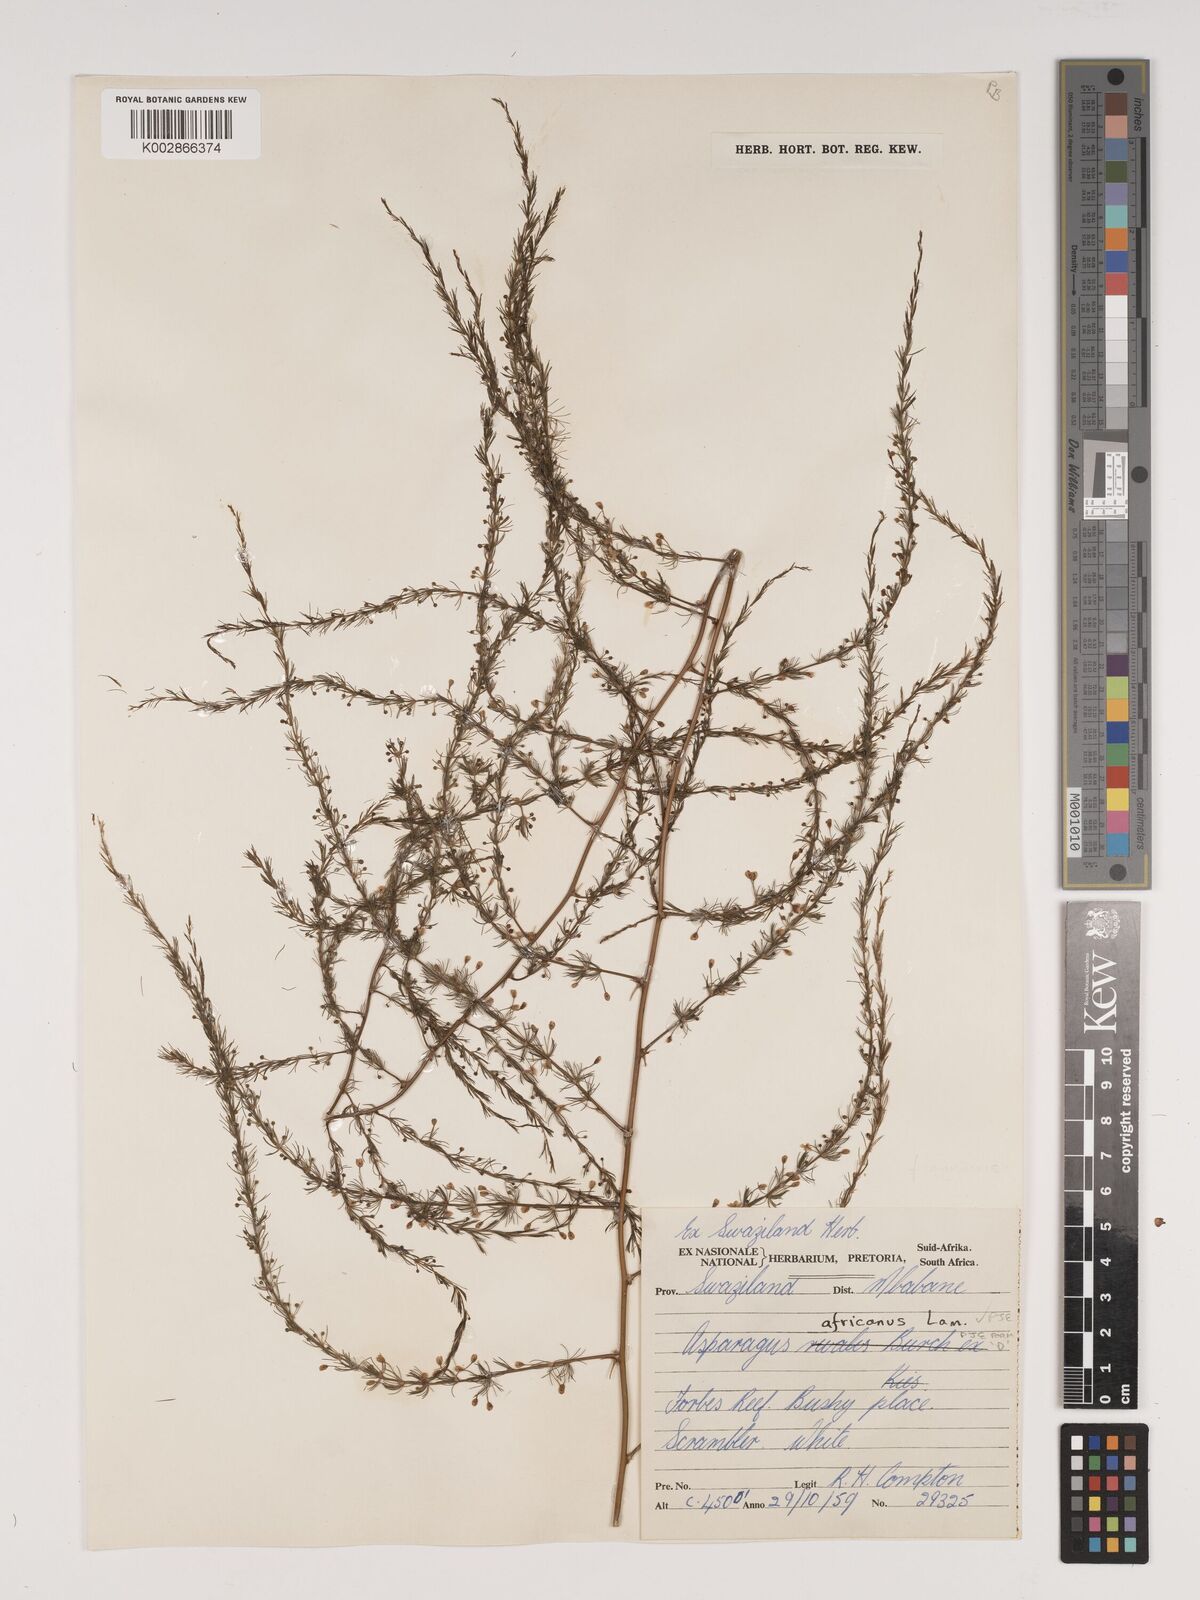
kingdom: Plantae
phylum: Tracheophyta
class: Liliopsida
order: Asparagales
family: Asparagaceae
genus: Asparagus
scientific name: Asparagus africanus
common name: Asparagus-fern
